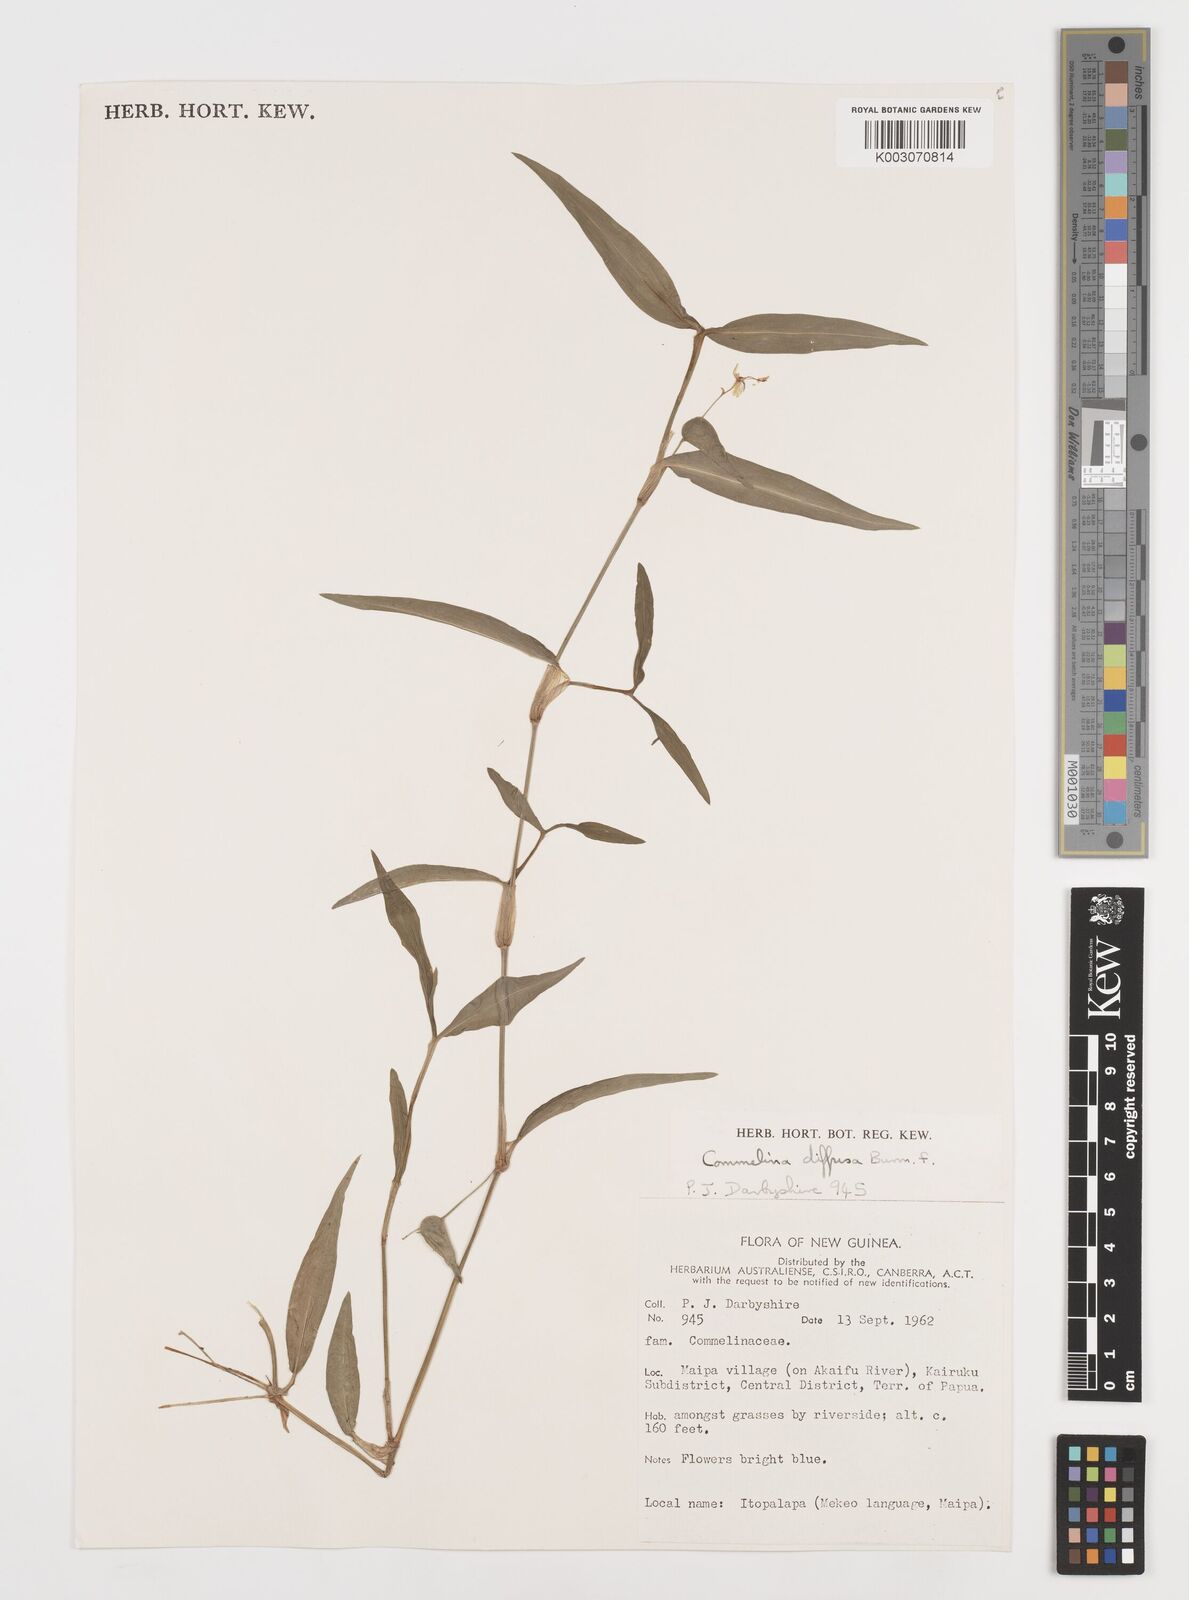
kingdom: Plantae
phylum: Tracheophyta
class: Liliopsida
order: Commelinales
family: Commelinaceae
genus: Murdannia
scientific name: Murdannia nudiflora
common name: Nakedstem dewflower
